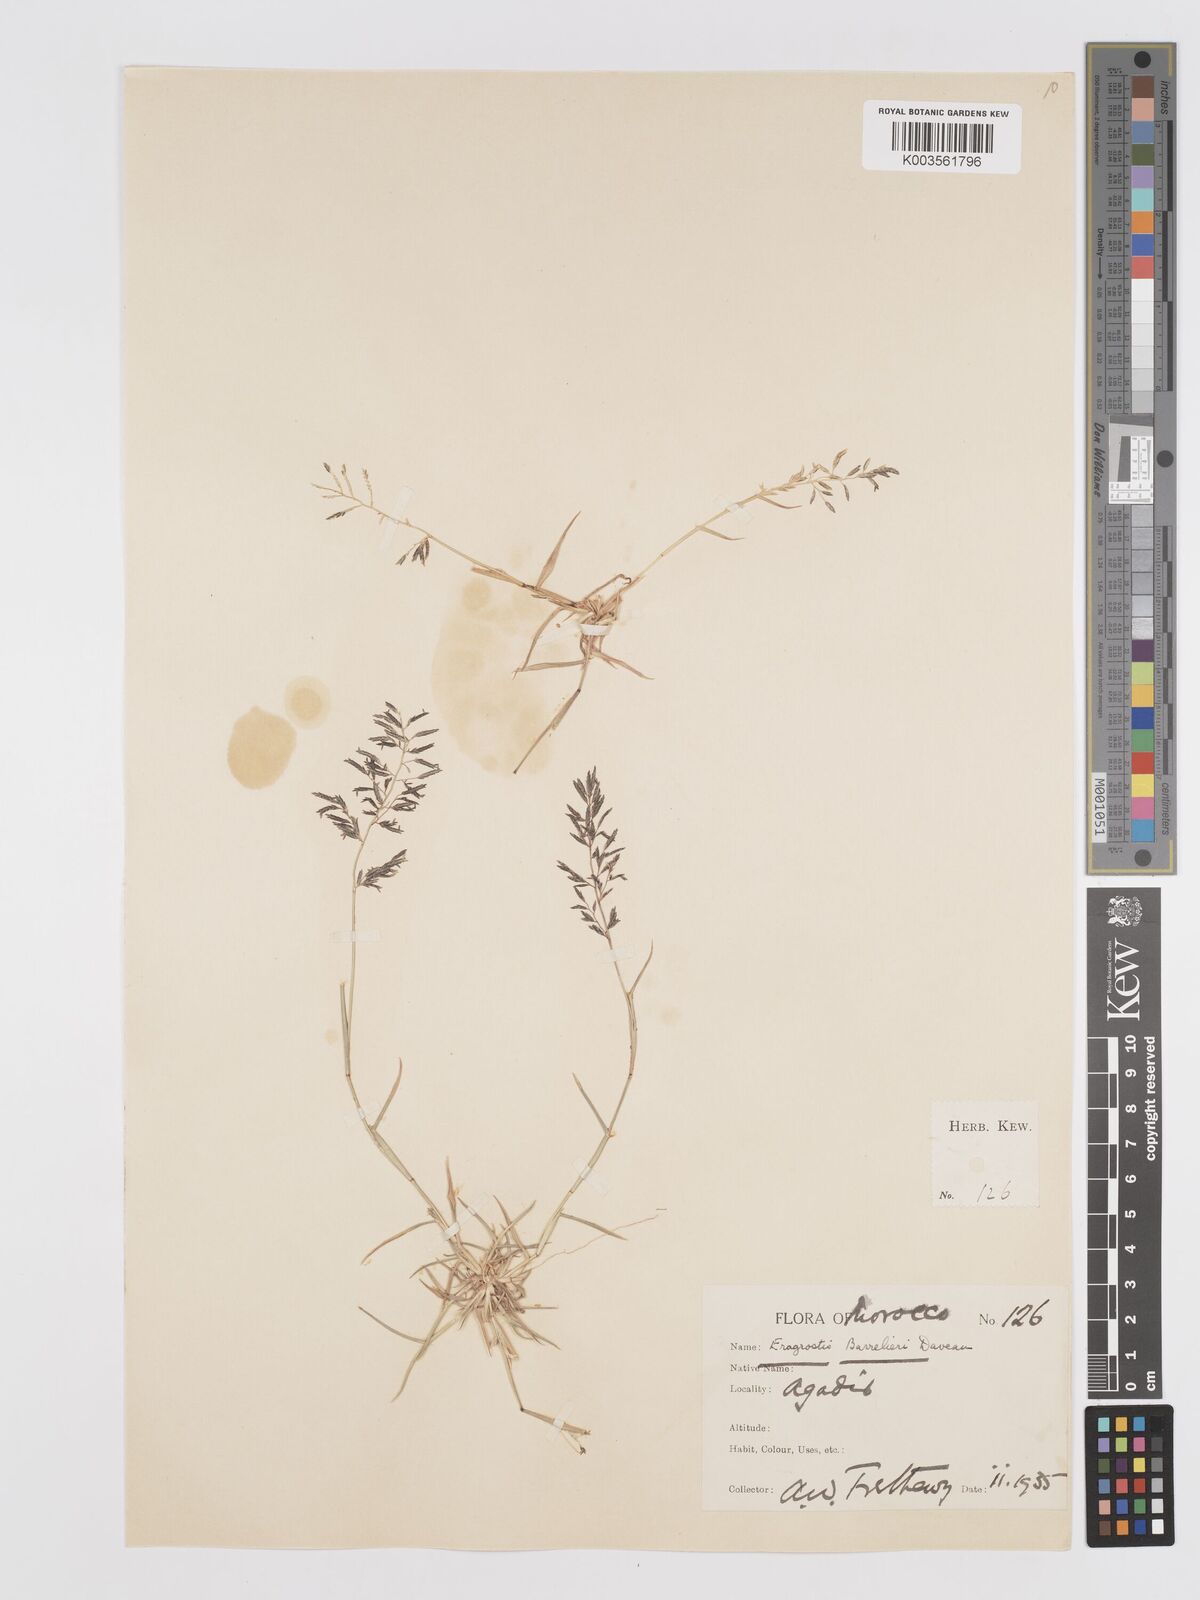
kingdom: Plantae
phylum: Tracheophyta
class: Liliopsida
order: Poales
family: Poaceae
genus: Eragrostis
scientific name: Eragrostis barrelieri
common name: Mediterranean lovegrass
